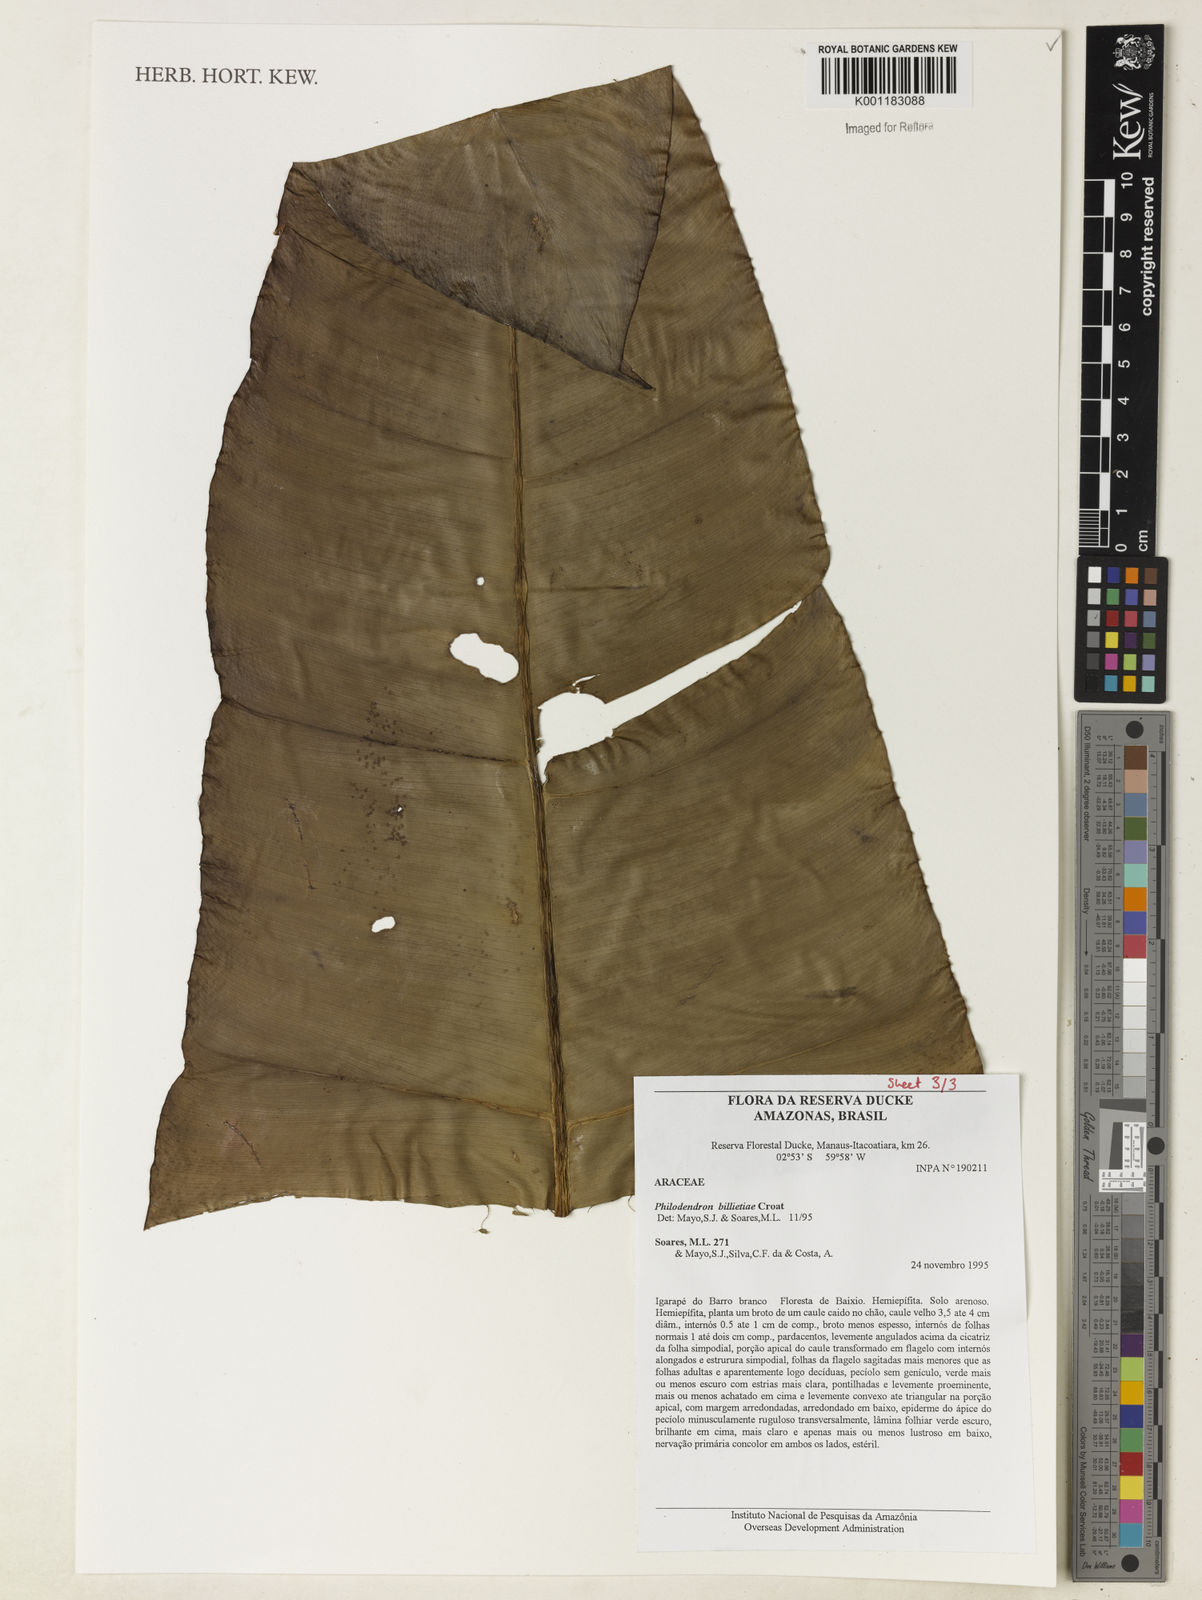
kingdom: Plantae
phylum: Tracheophyta
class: Liliopsida
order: Alismatales
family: Araceae
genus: Philodendron
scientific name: Philodendron billietiae
